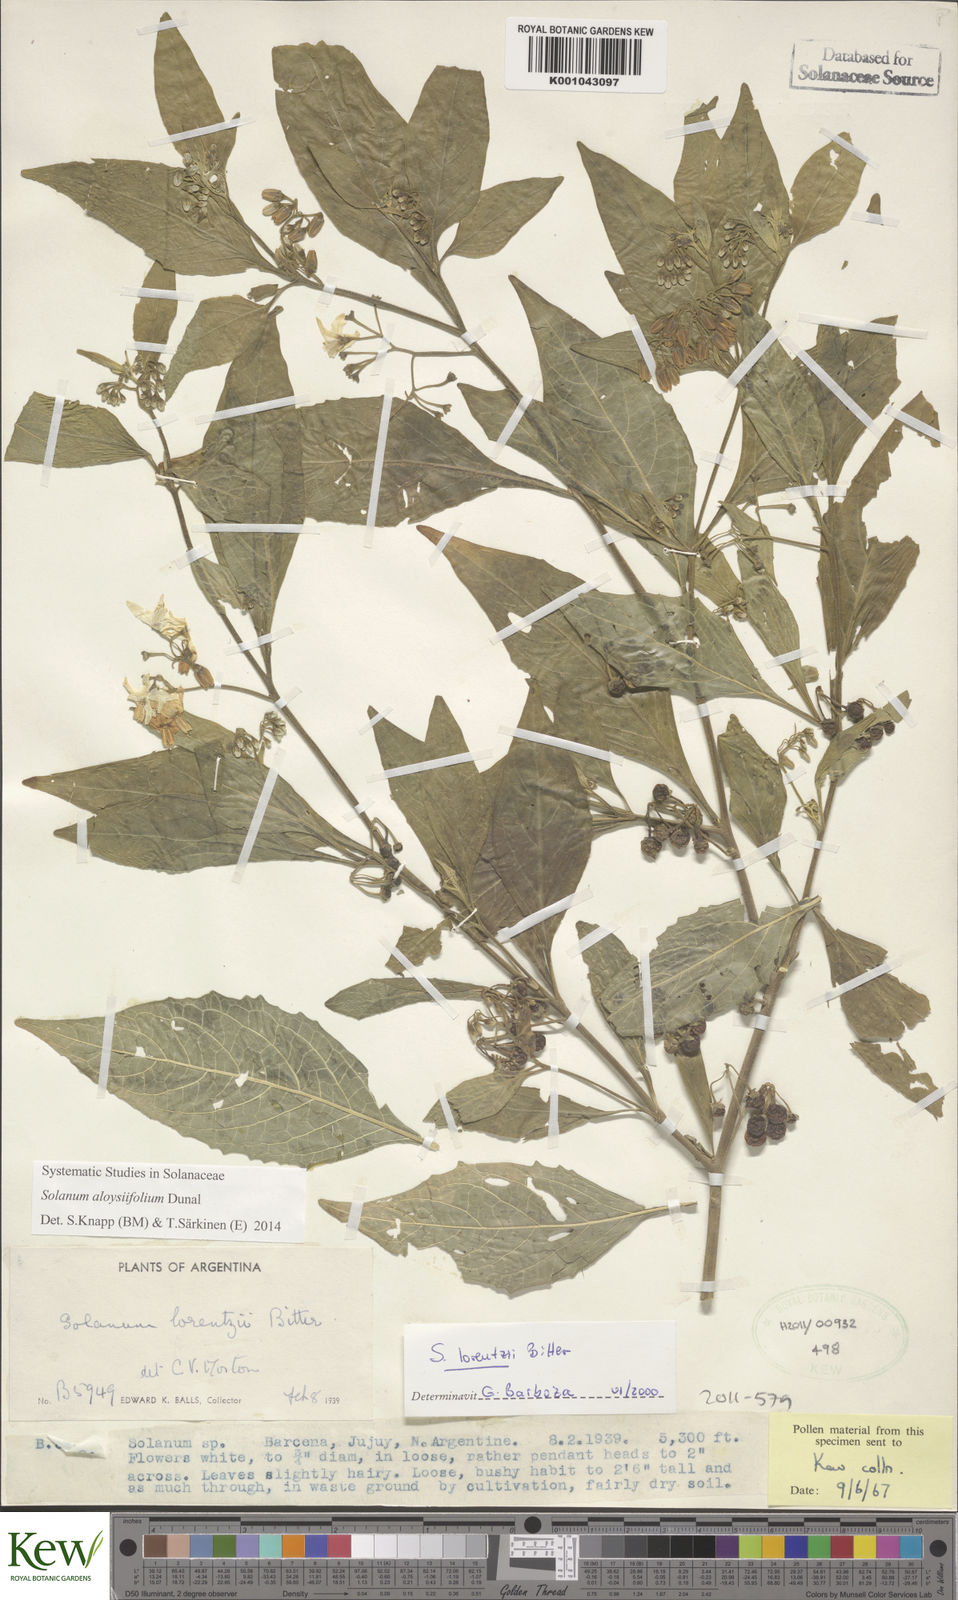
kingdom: Plantae
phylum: Tracheophyta
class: Magnoliopsida
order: Solanales
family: Solanaceae
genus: Solanum
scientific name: Solanum aloysiifolium
